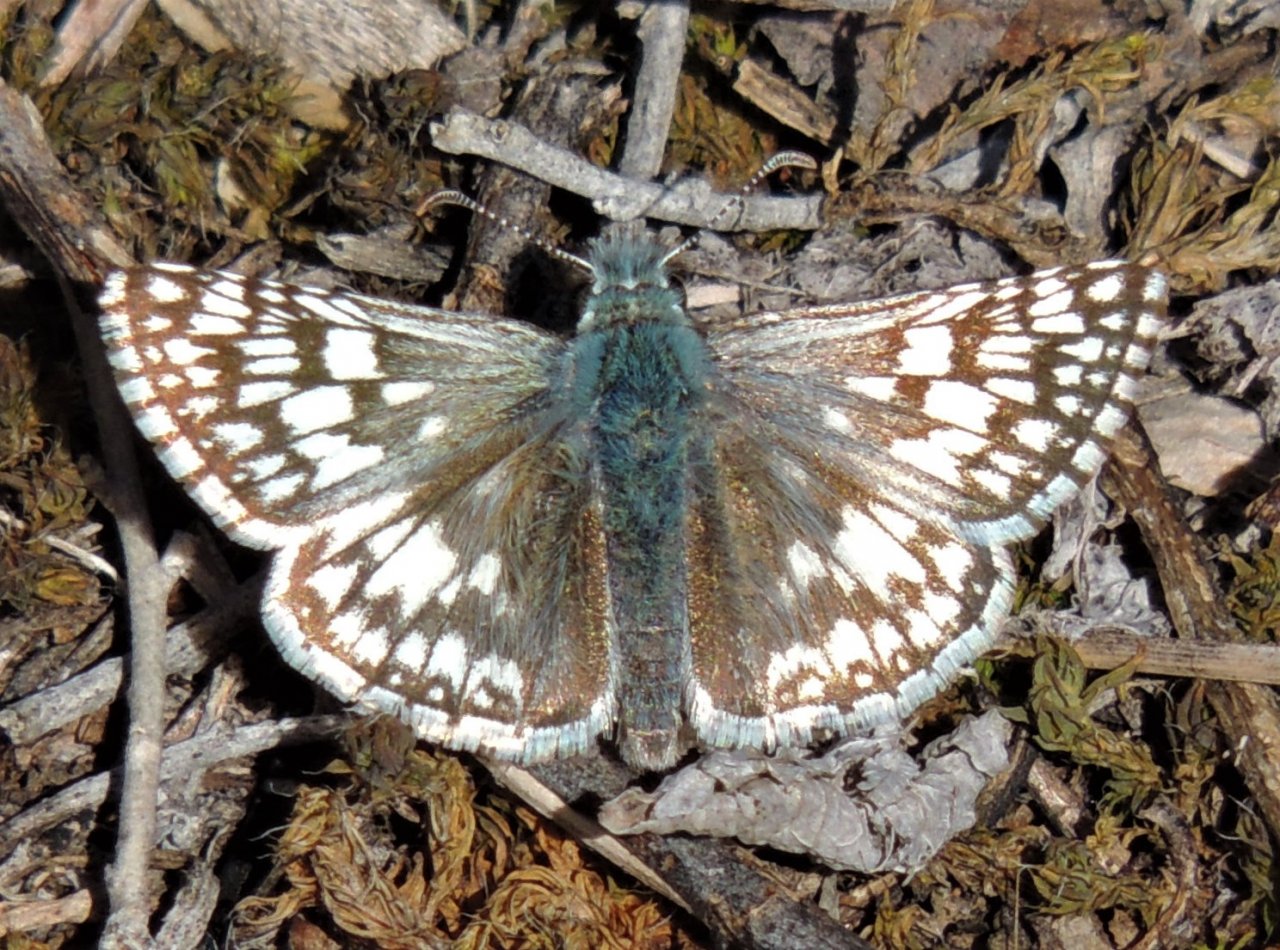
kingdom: Animalia
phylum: Arthropoda
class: Insecta
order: Lepidoptera
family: Hesperiidae
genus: Pyrgus
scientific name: Pyrgus communis
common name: Common Checkered-Skipper
